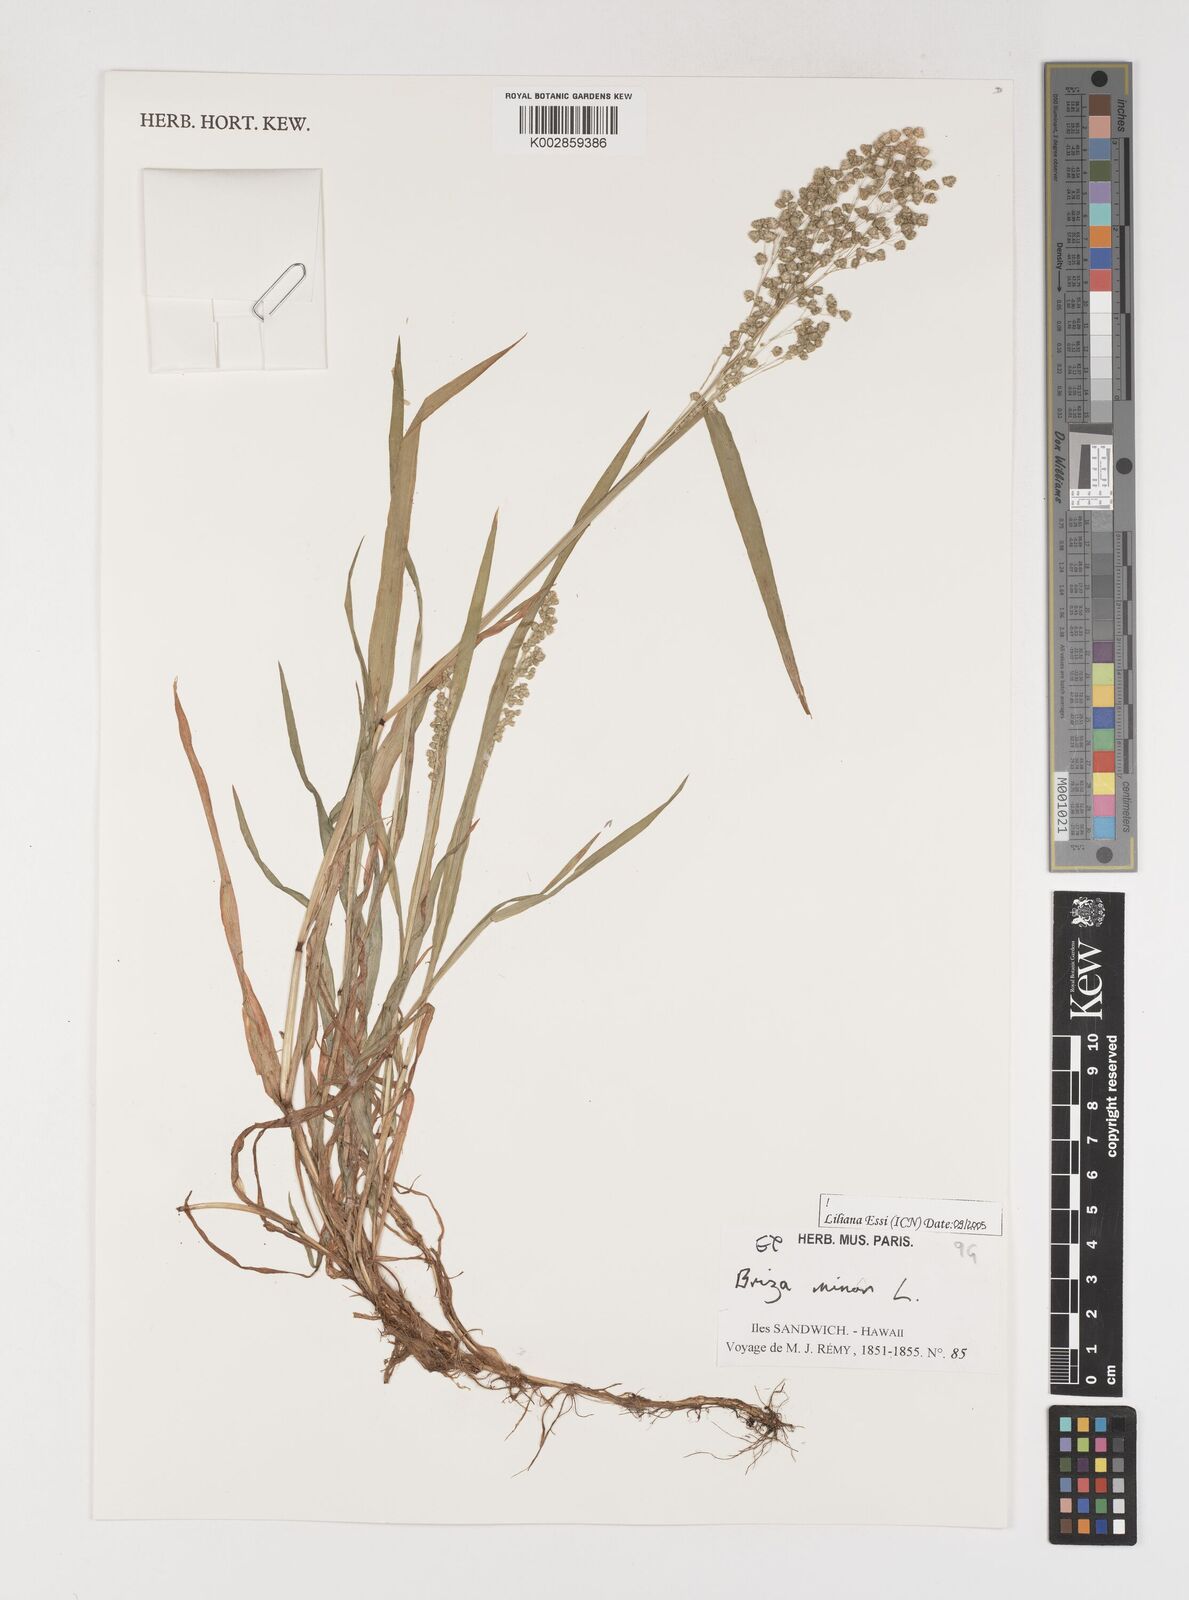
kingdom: Plantae
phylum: Tracheophyta
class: Liliopsida
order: Poales
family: Poaceae
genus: Briza
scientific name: Briza minor
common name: Lesser quaking-grass
